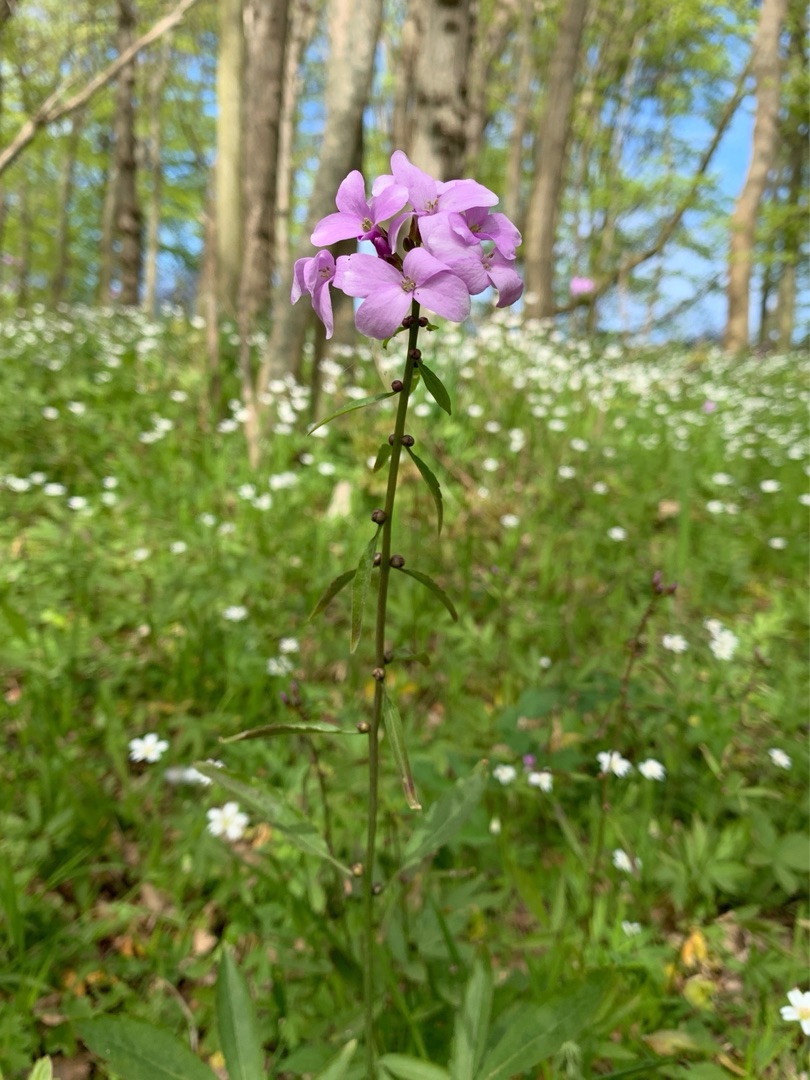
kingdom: Plantae
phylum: Tracheophyta
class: Magnoliopsida
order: Brassicales
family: Brassicaceae
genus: Cardamine
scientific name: Cardamine bulbifera
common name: Tandrod
